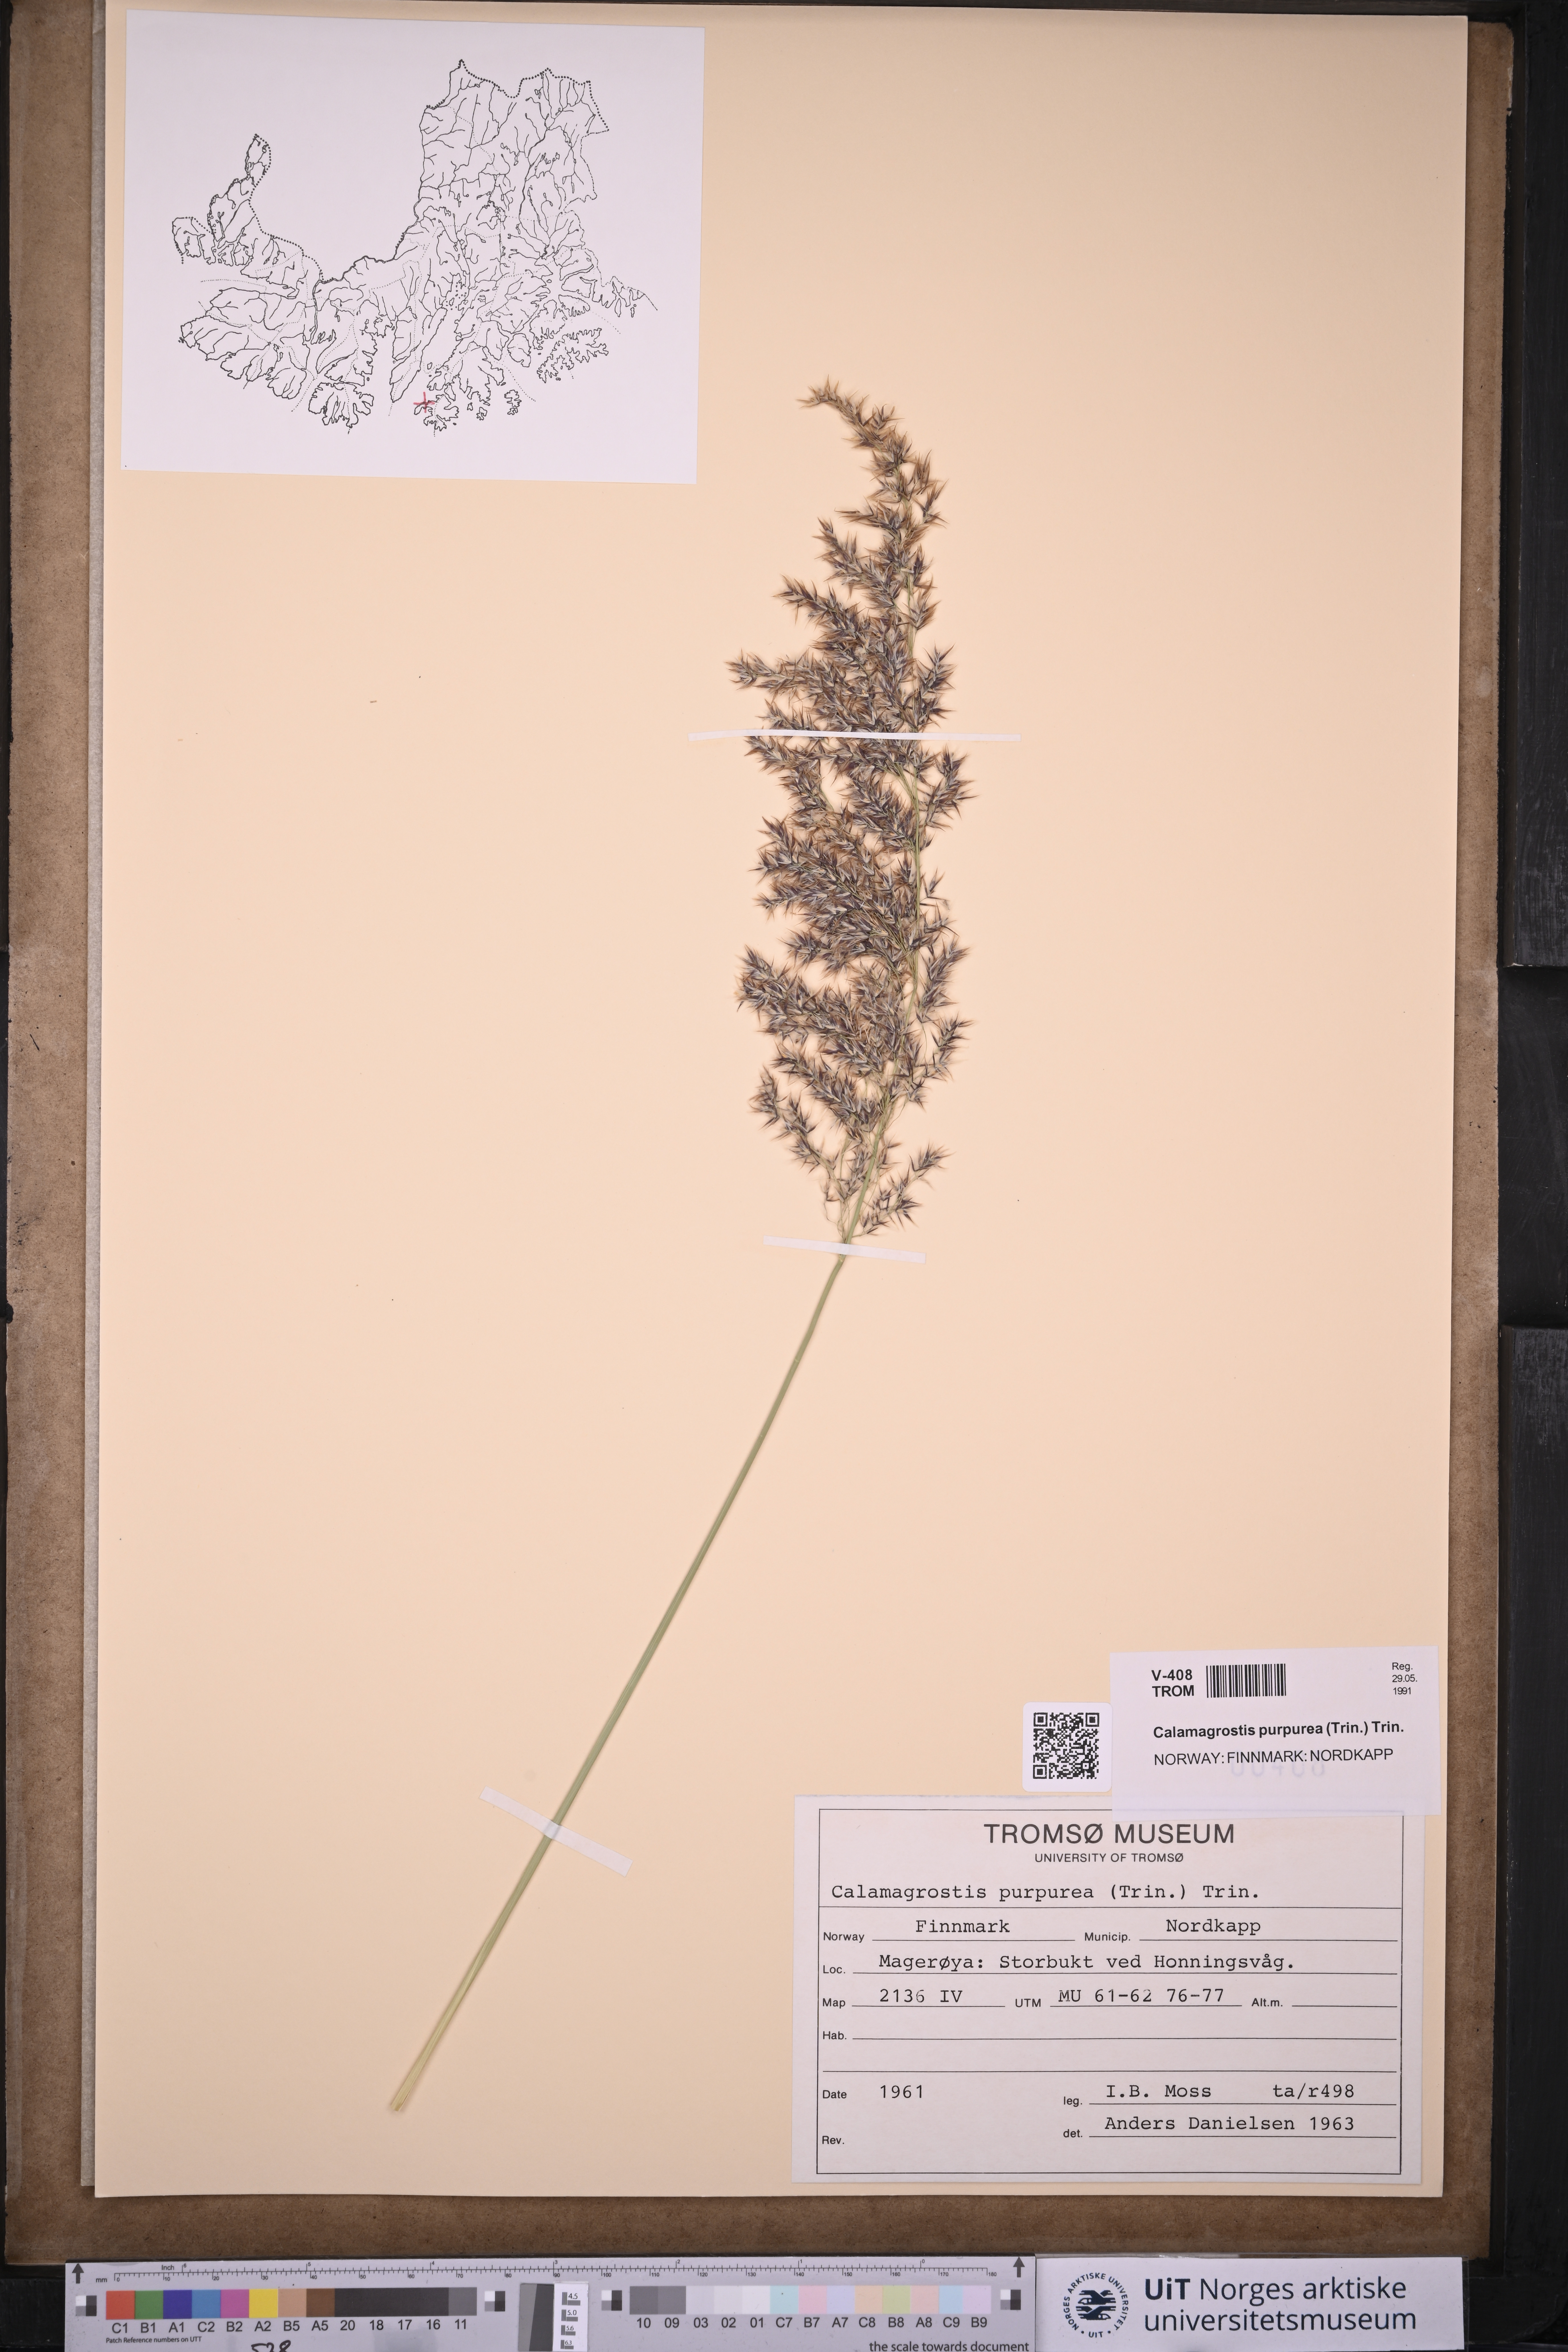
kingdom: Plantae
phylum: Tracheophyta
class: Liliopsida
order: Poales
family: Poaceae
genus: Calamagrostis
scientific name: Calamagrostis purpurea
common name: Scandinavian small-reed
